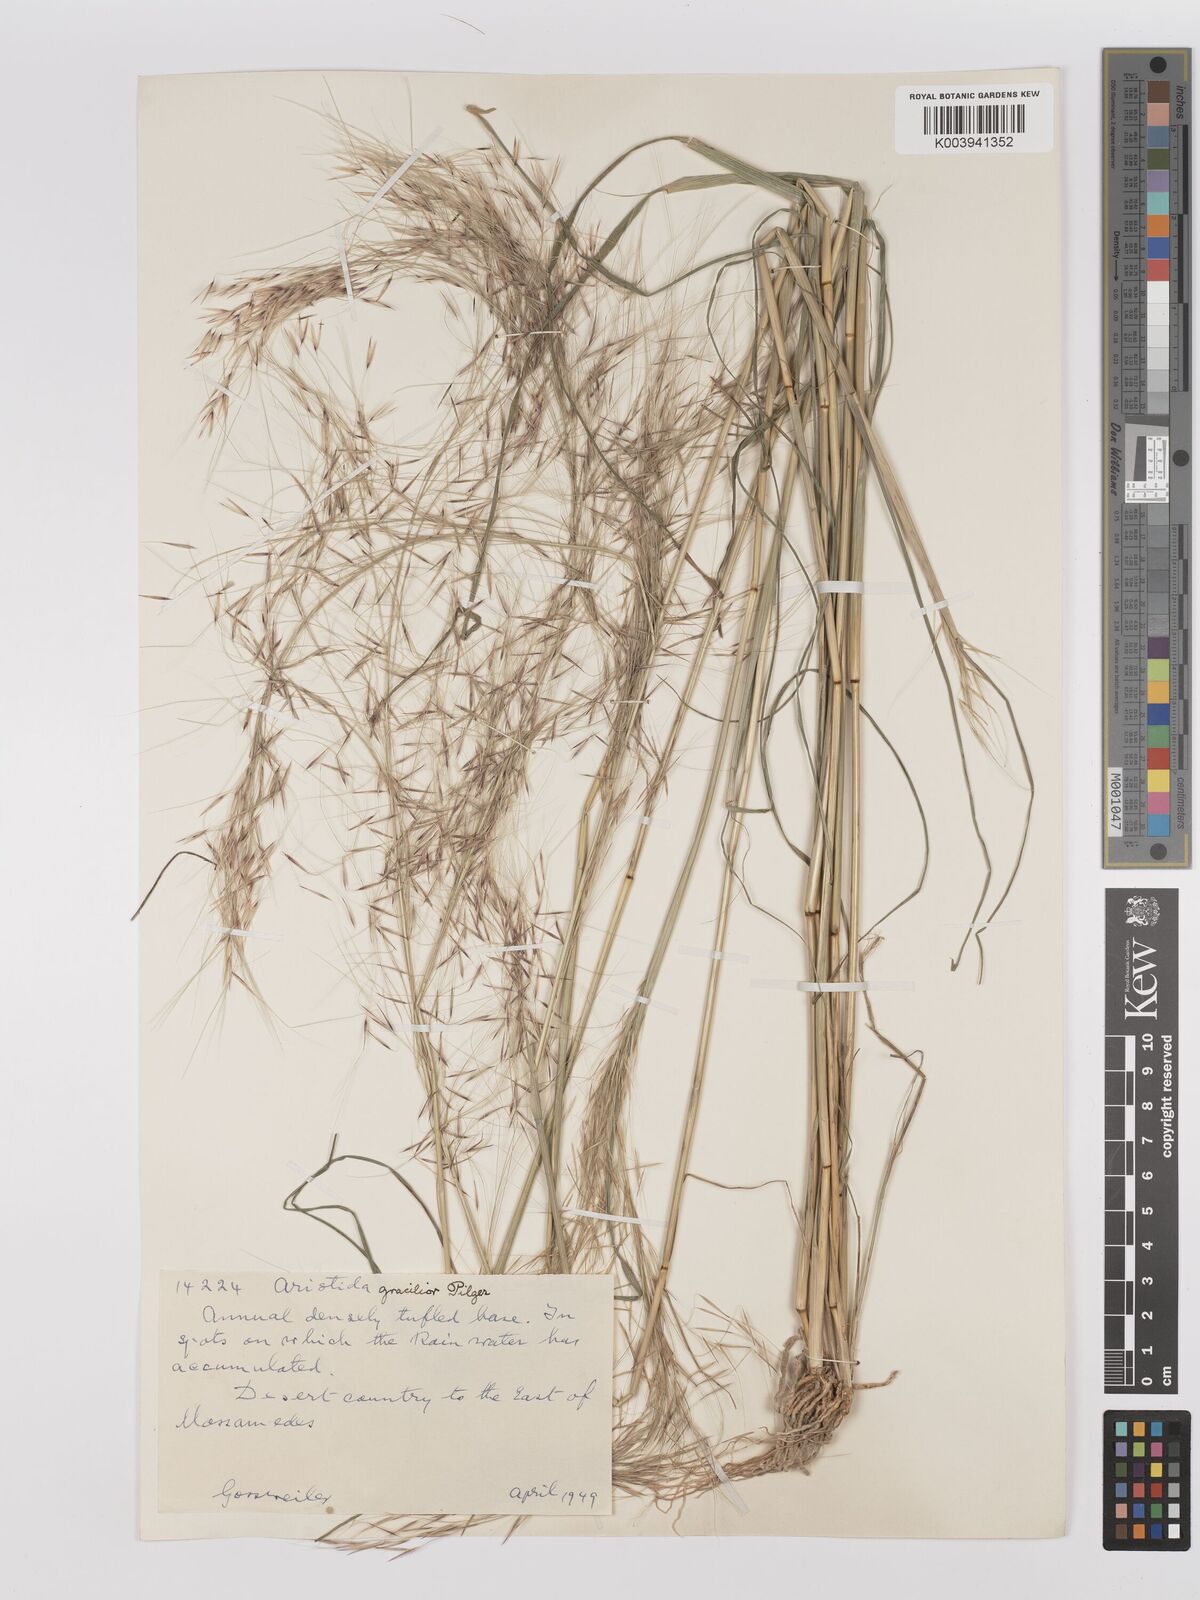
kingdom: Plantae
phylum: Tracheophyta
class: Liliopsida
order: Poales
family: Poaceae
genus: Stipagrostis
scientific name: Stipagrostis hirtigluma
